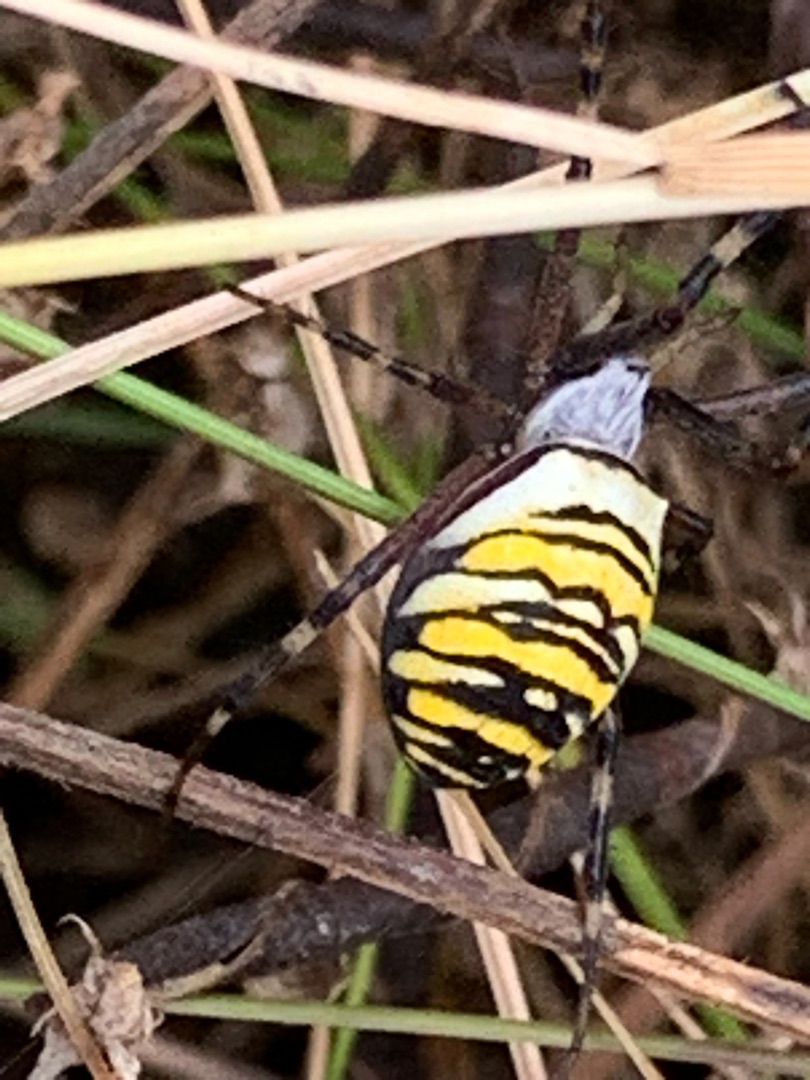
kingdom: Animalia
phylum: Arthropoda
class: Arachnida
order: Araneae
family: Araneidae
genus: Argiope
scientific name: Argiope bruennichi
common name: Hvepseedderkop
